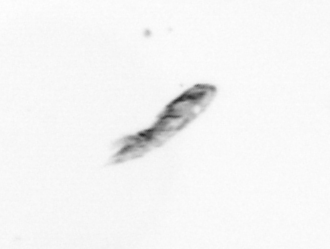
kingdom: Animalia
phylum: Arthropoda
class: Copepoda
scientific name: Copepoda
